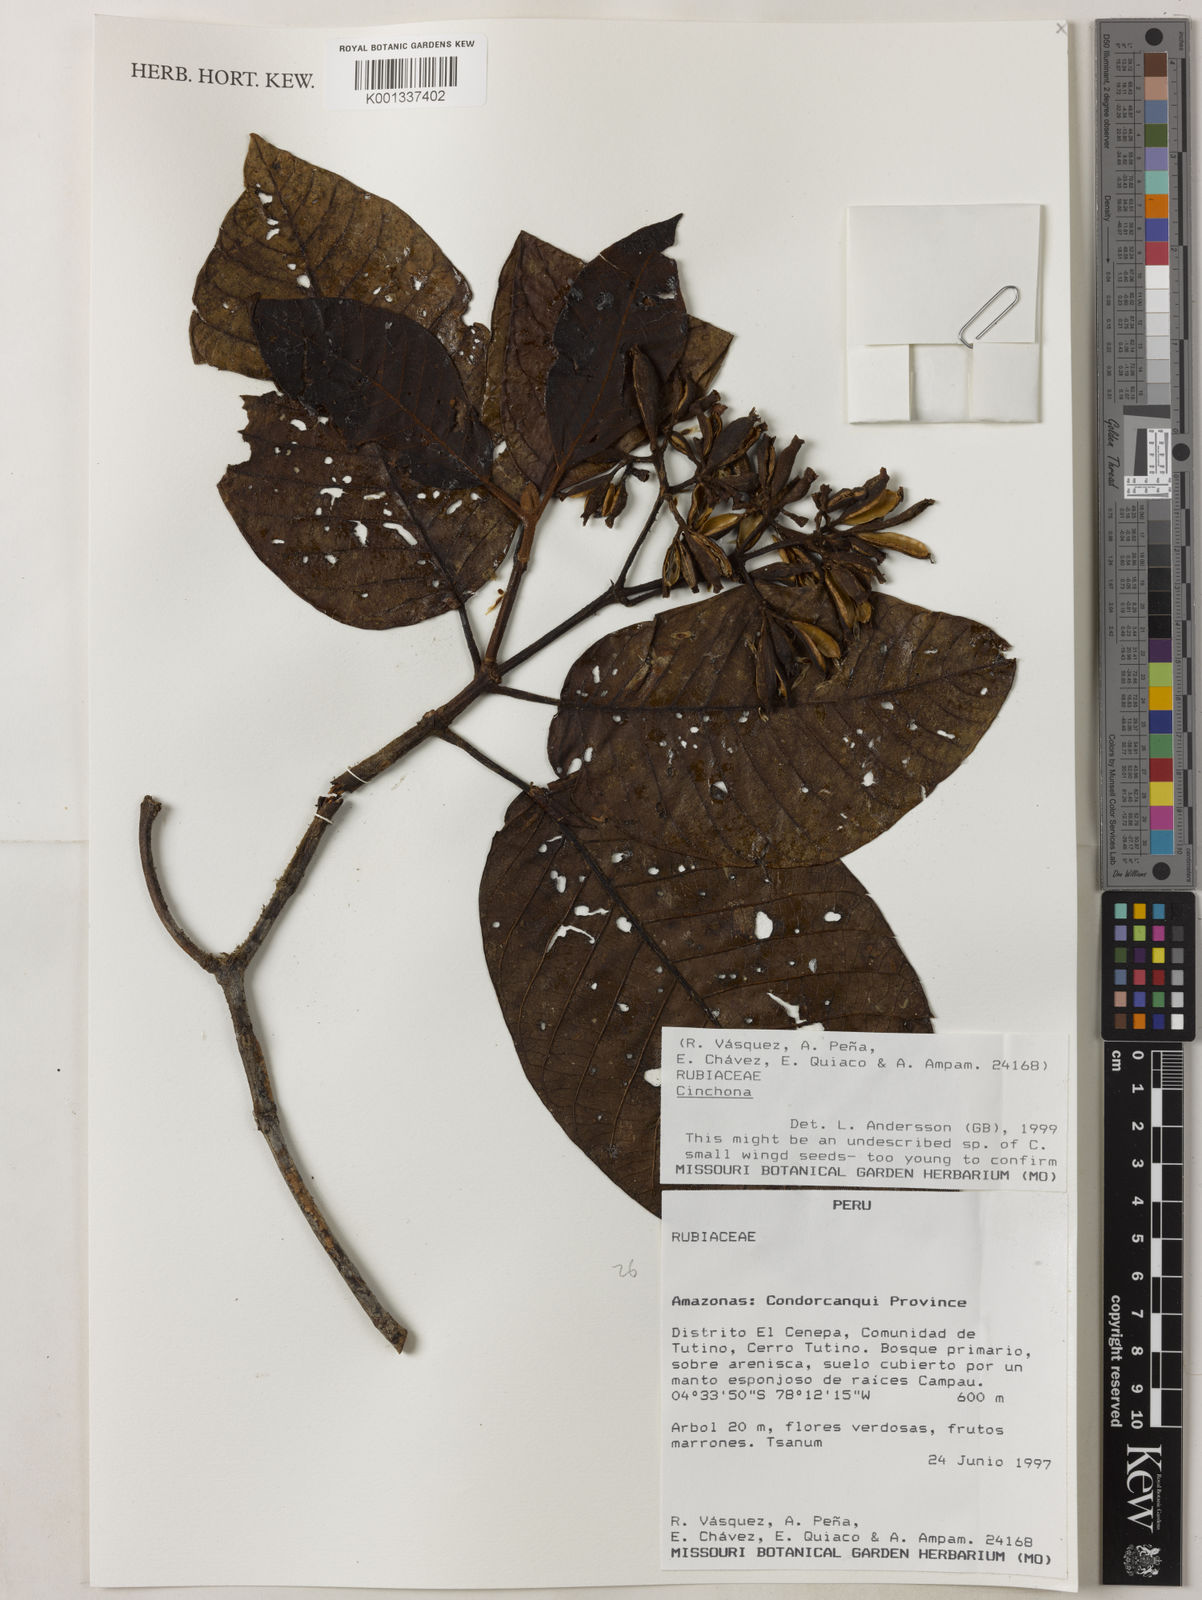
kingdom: Plantae
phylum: Tracheophyta
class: Magnoliopsida
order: Gentianales
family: Rubiaceae
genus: Cinchona
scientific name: Cinchona
